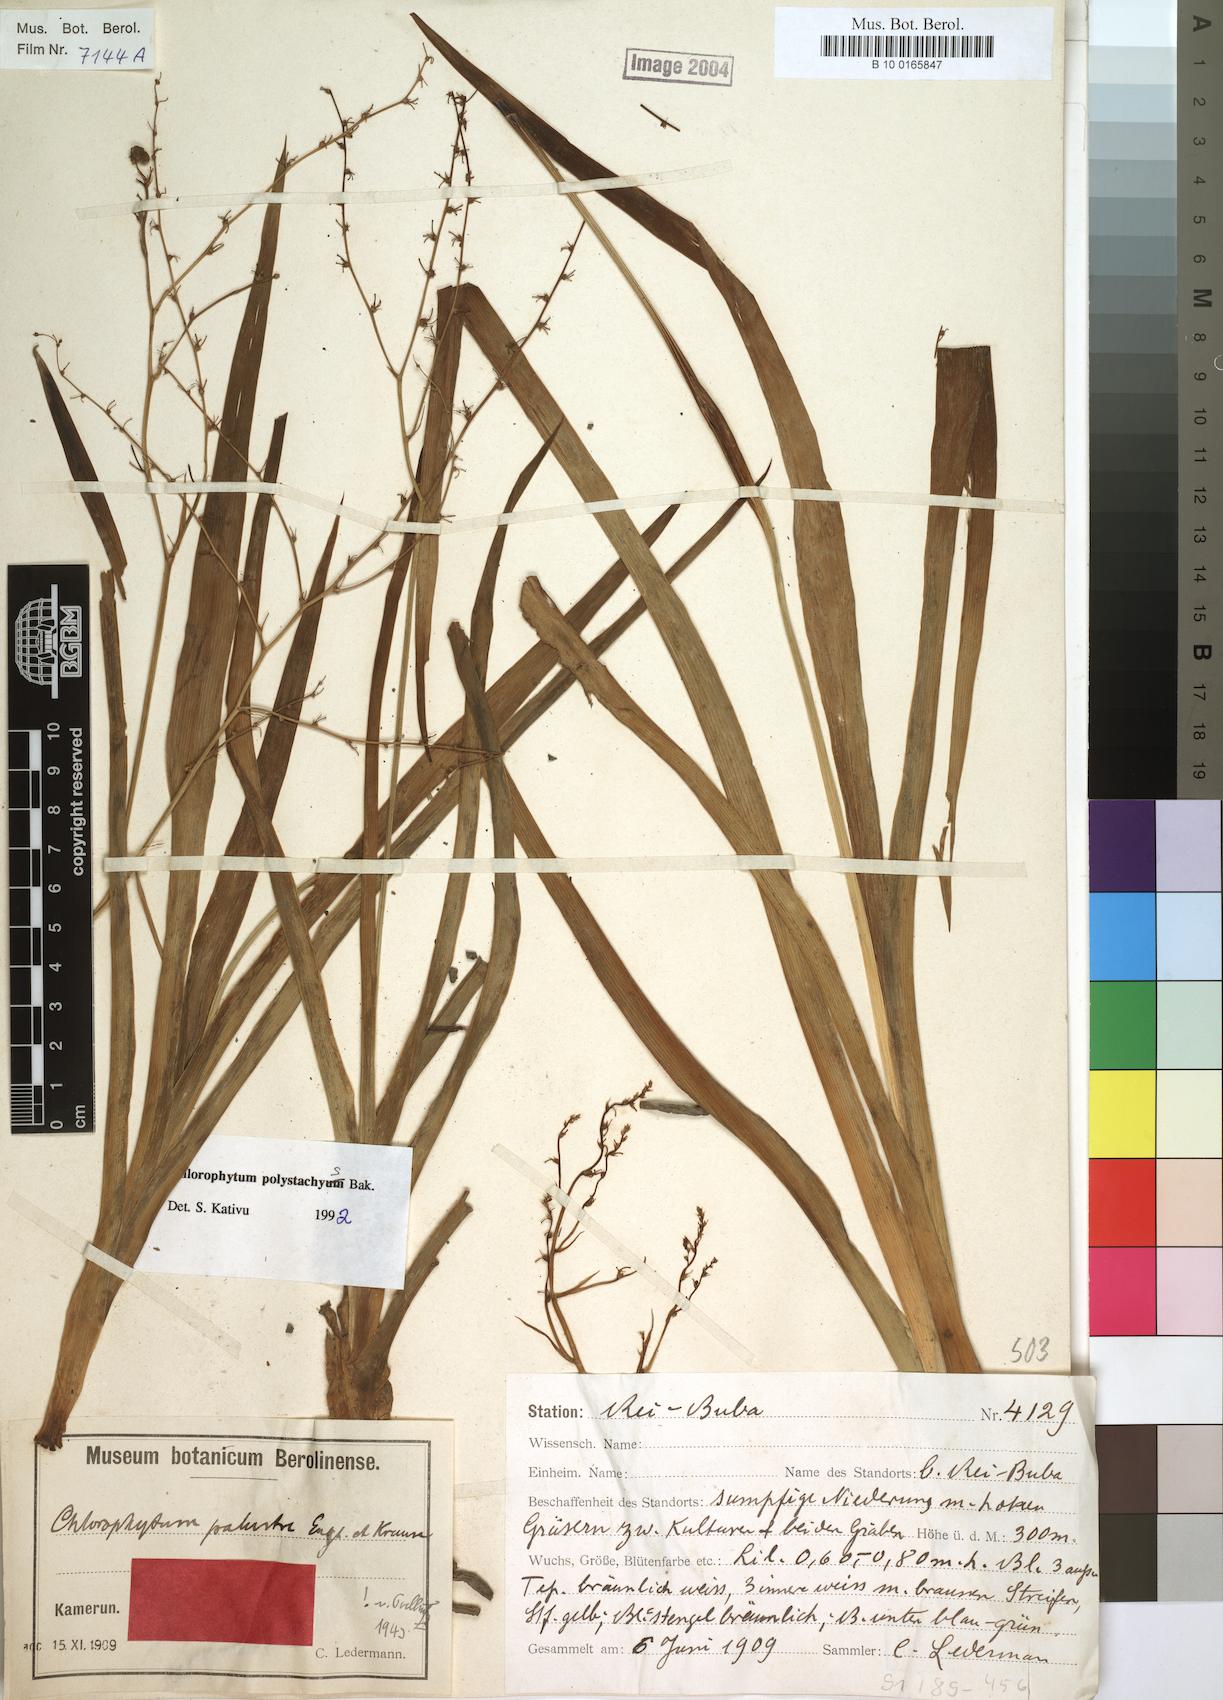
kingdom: Plantae
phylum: Tracheophyta
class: Liliopsida
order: Asparagales
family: Asparagaceae
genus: Chlorophytum
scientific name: Chlorophytum polystachys
